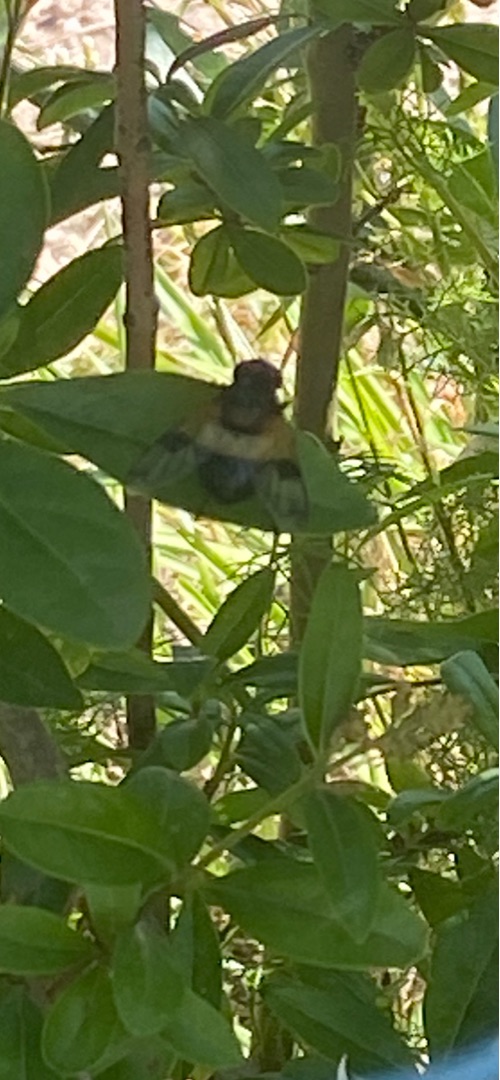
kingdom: Animalia
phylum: Arthropoda
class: Insecta
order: Diptera
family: Syrphidae
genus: Volucella
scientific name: Volucella pellucens
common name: Hvidbåndet humlesvirreflue
